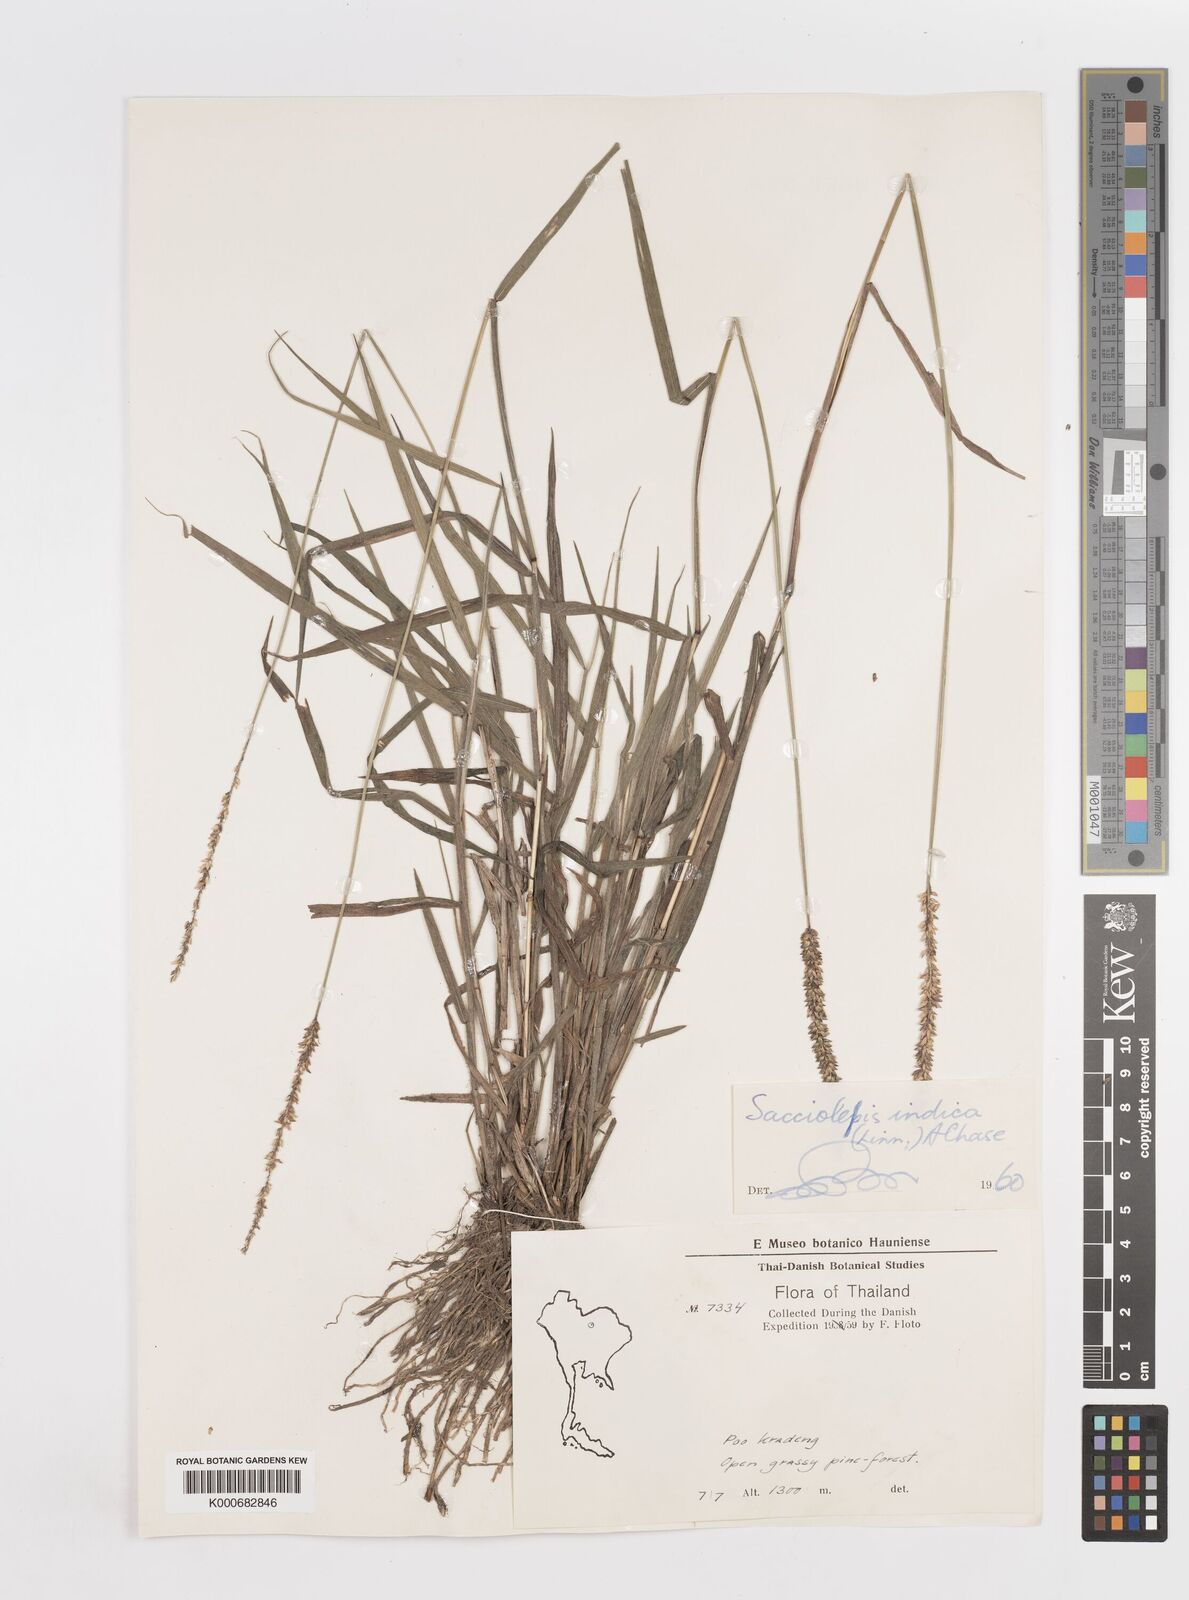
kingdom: Plantae
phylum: Tracheophyta
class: Liliopsida
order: Poales
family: Poaceae
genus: Sacciolepis
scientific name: Sacciolepis indica
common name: Glenwoodgrass
